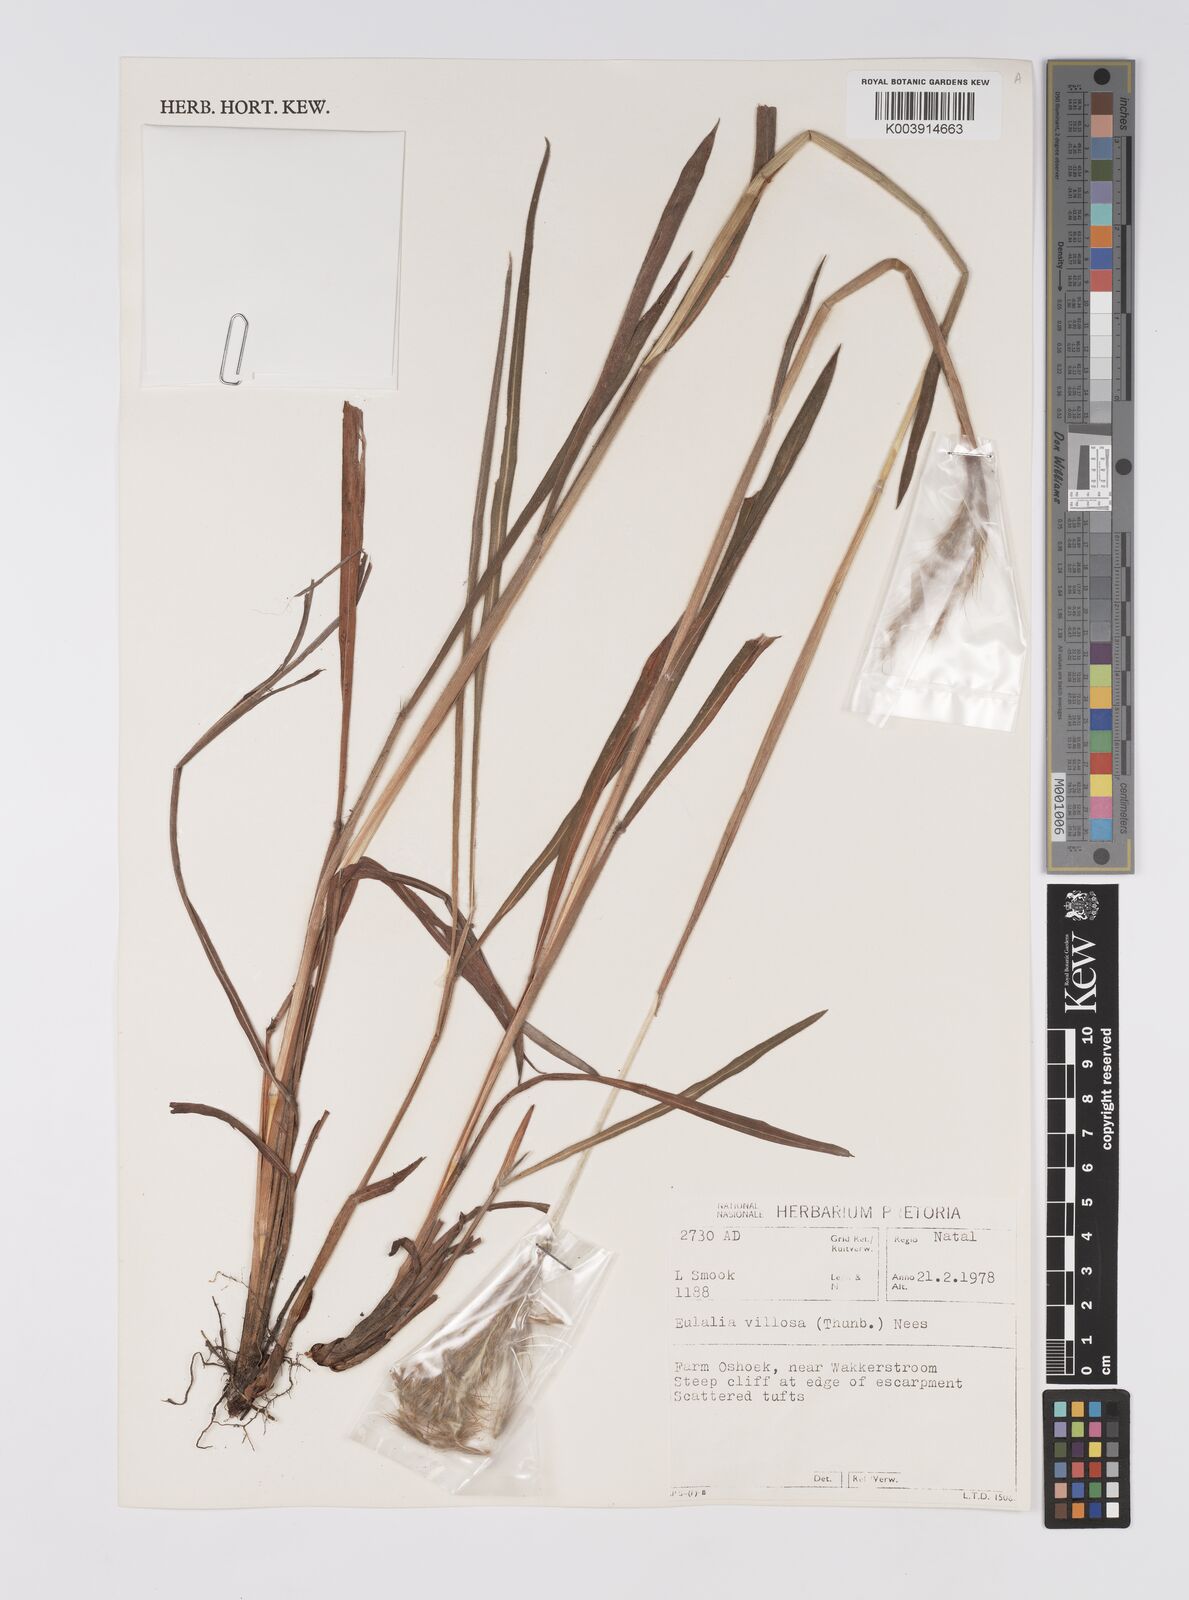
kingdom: Plantae
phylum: Tracheophyta
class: Liliopsida
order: Poales
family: Poaceae
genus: Eulalia
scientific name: Eulalia villosa
